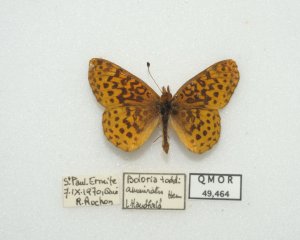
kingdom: Animalia
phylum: Arthropoda
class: Insecta
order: Lepidoptera
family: Nymphalidae
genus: Clossiana
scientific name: Clossiana toddi
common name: Meadow Fritillary
